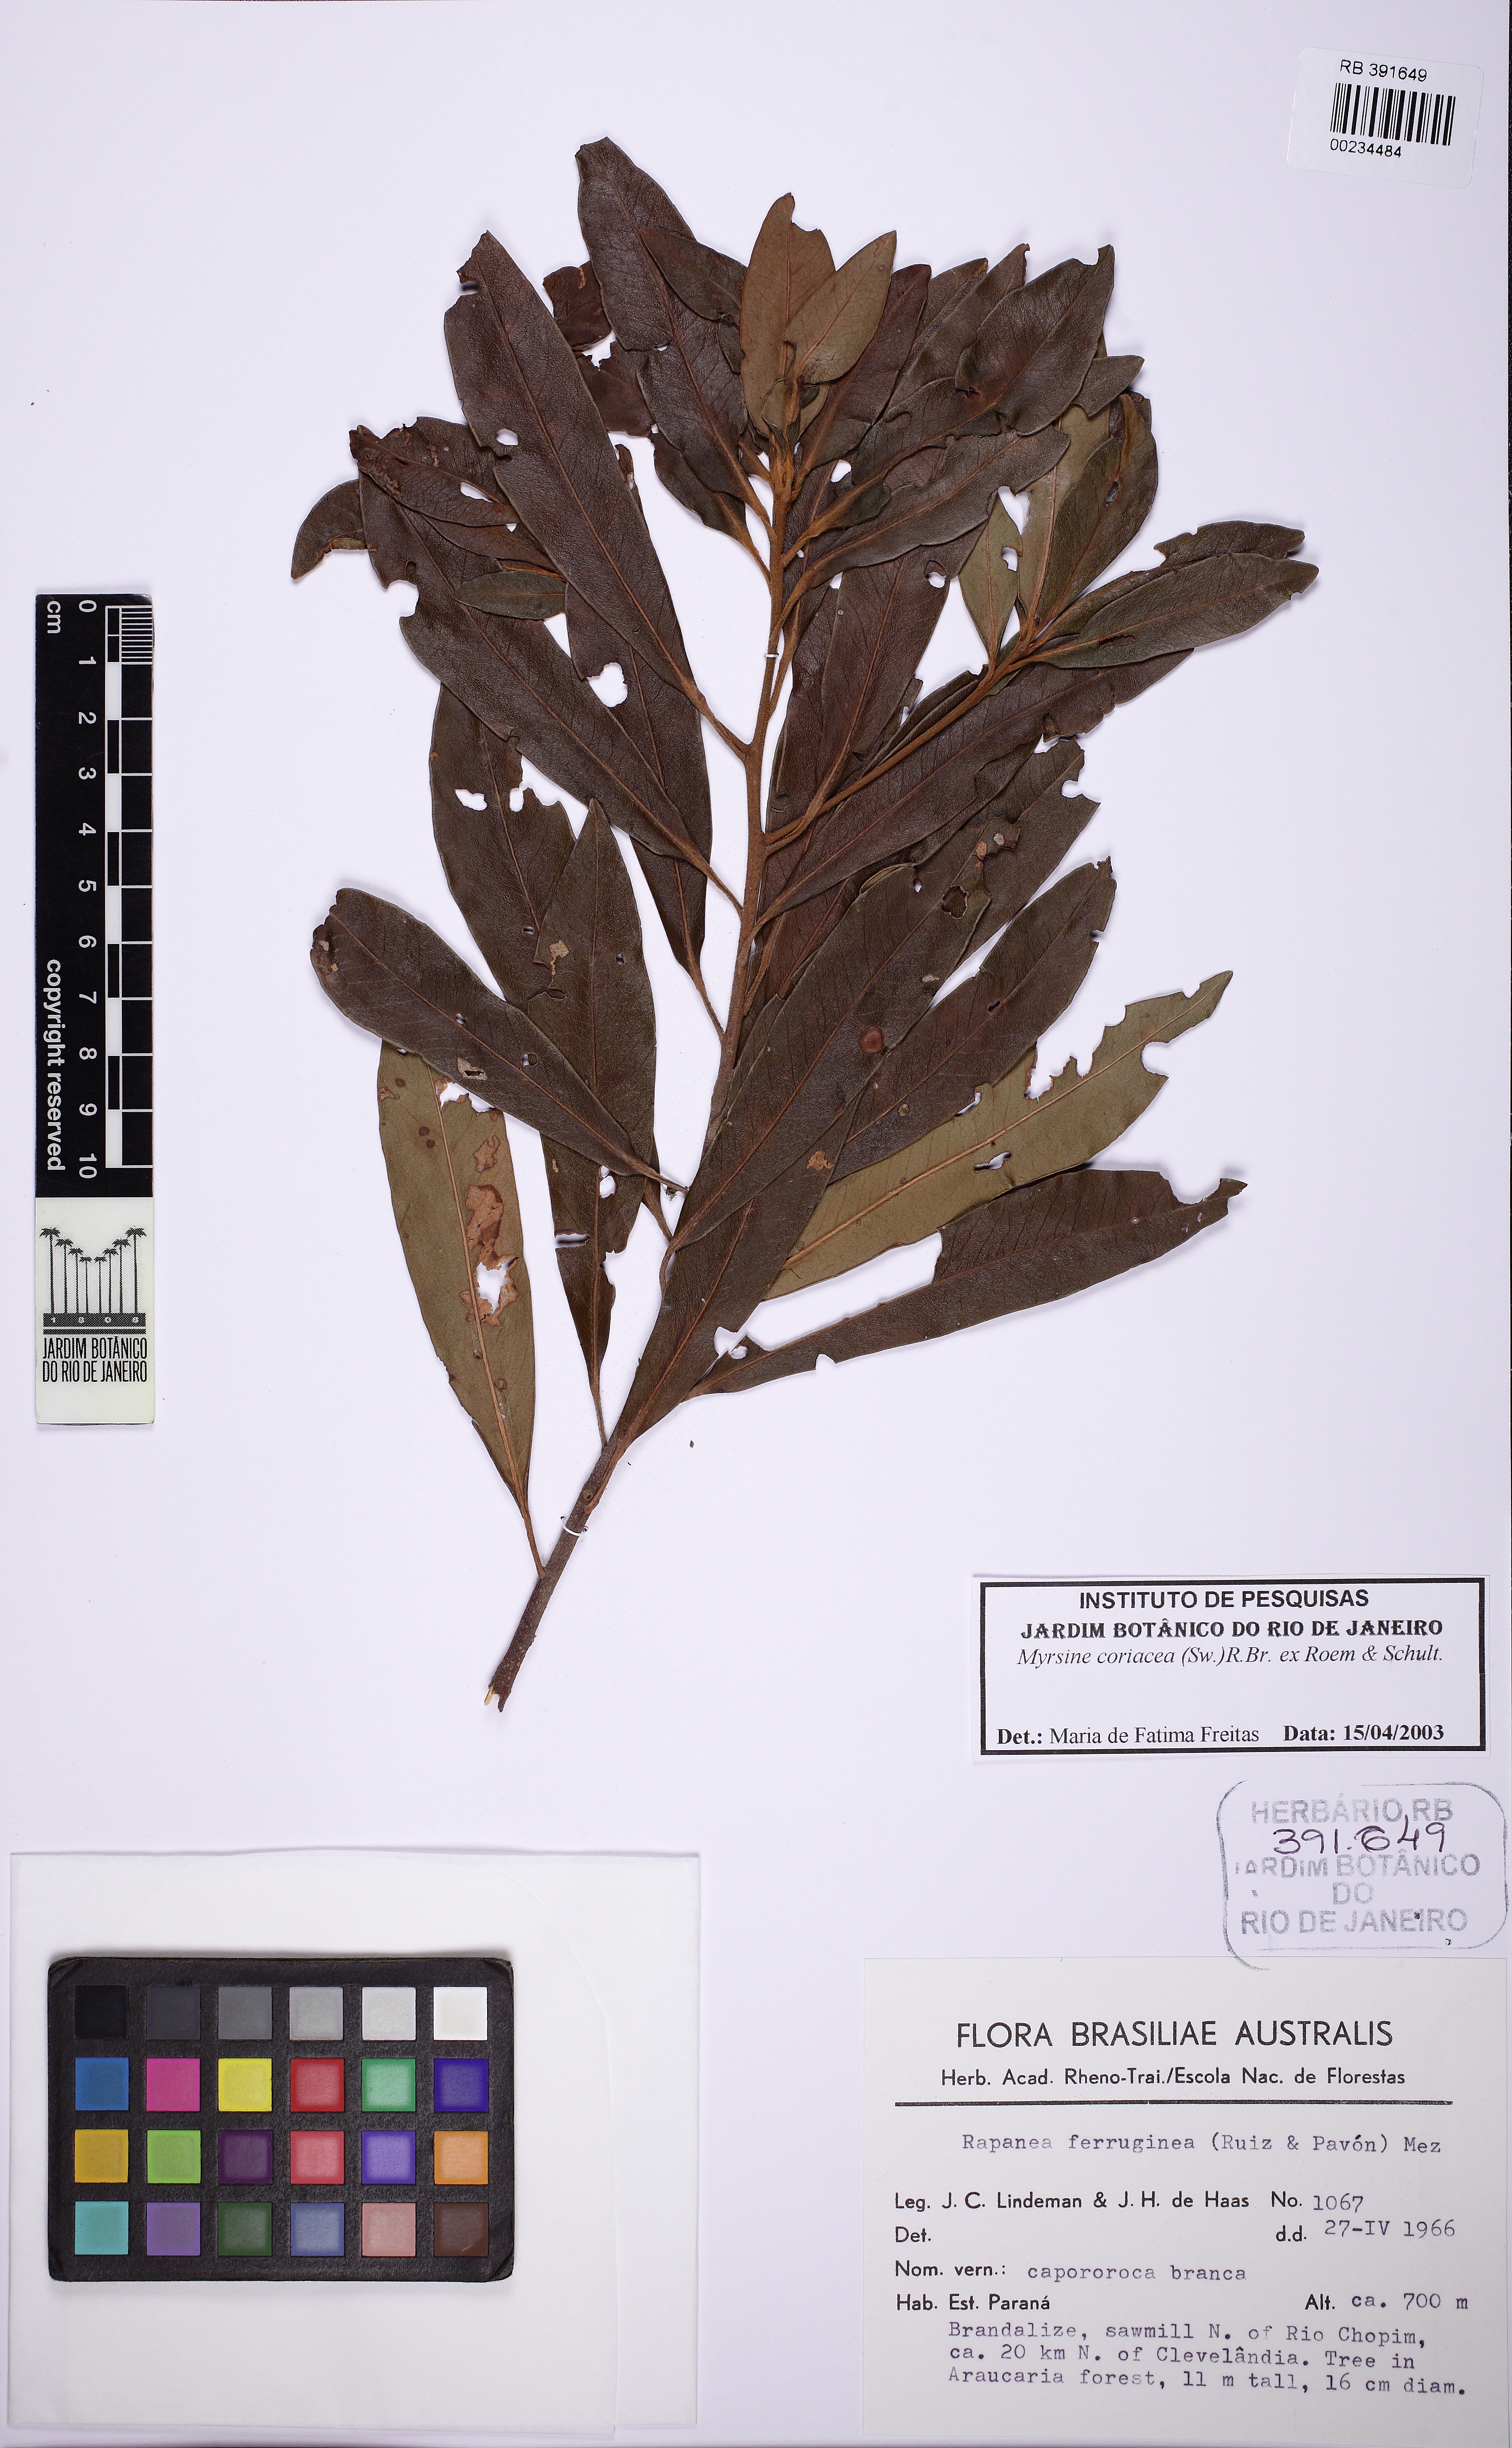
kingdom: Plantae
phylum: Tracheophyta
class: Magnoliopsida
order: Ericales
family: Primulaceae
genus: Myrsine
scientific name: Myrsine coriacea
